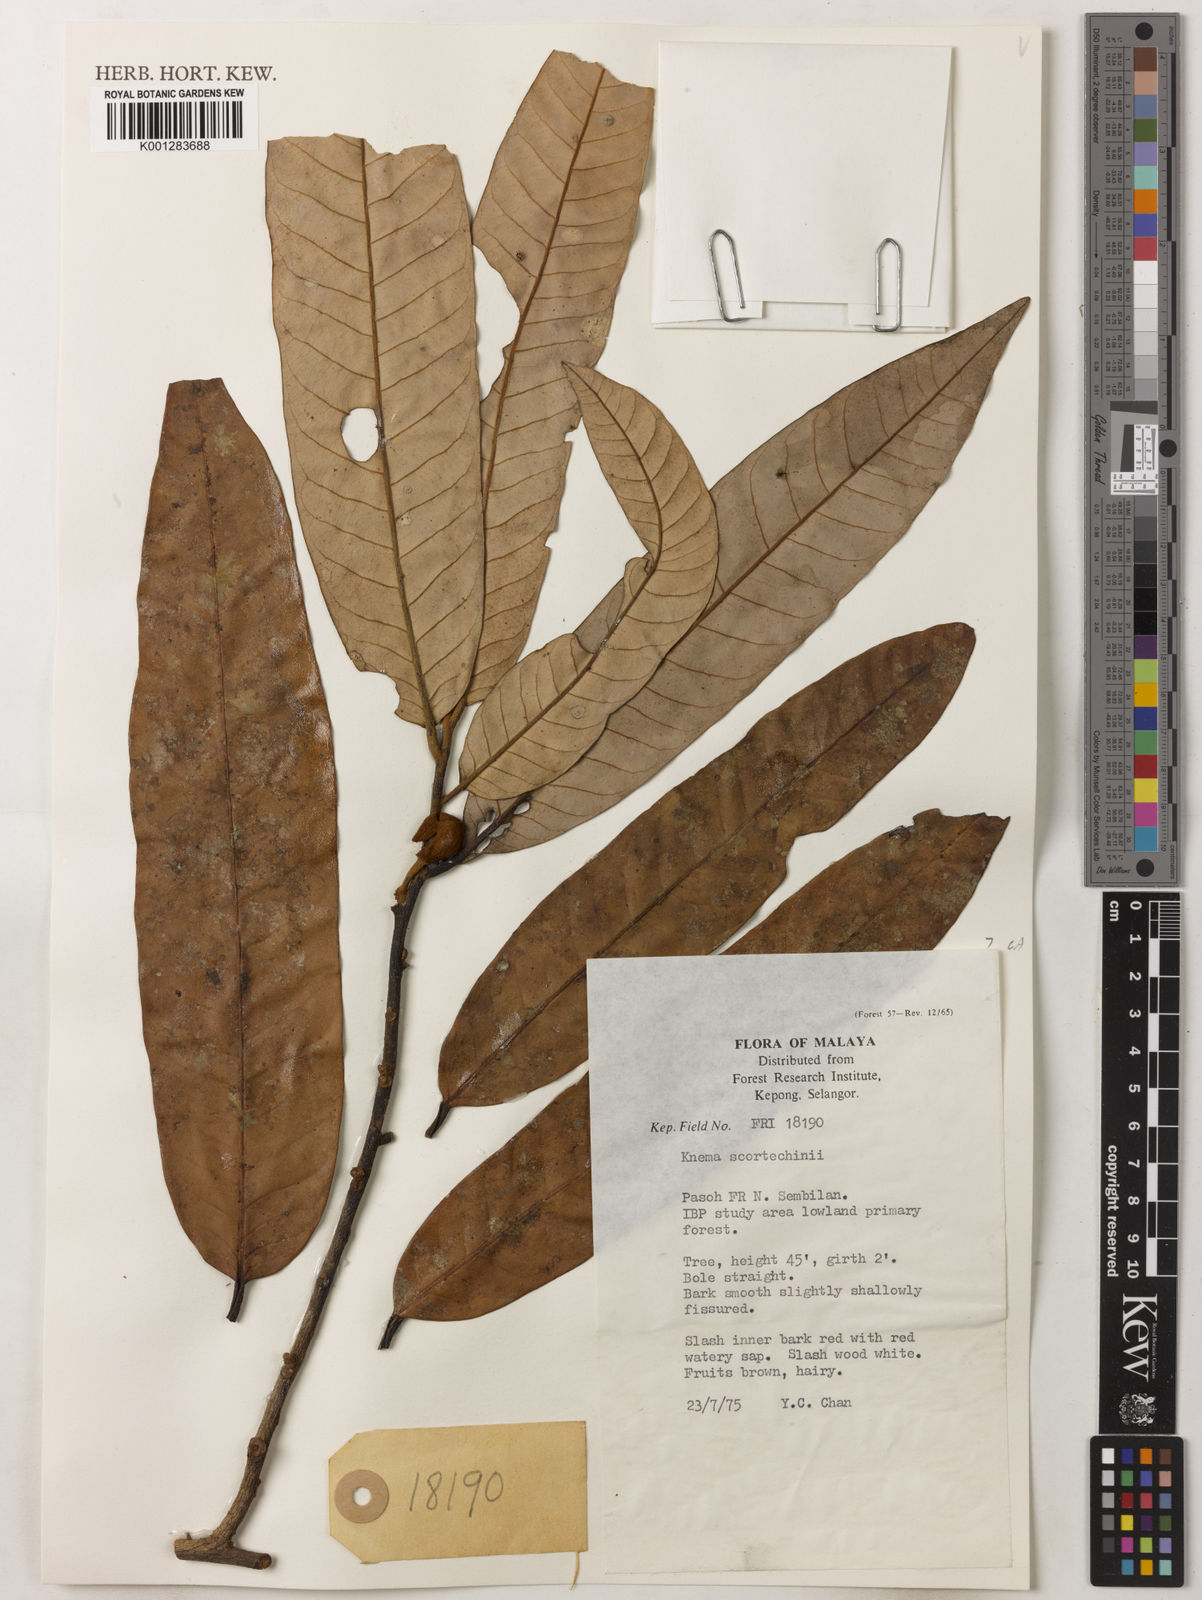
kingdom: Plantae
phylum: Tracheophyta
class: Magnoliopsida
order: Magnoliales
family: Myristicaceae
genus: Knema
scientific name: Knema scortechinii
